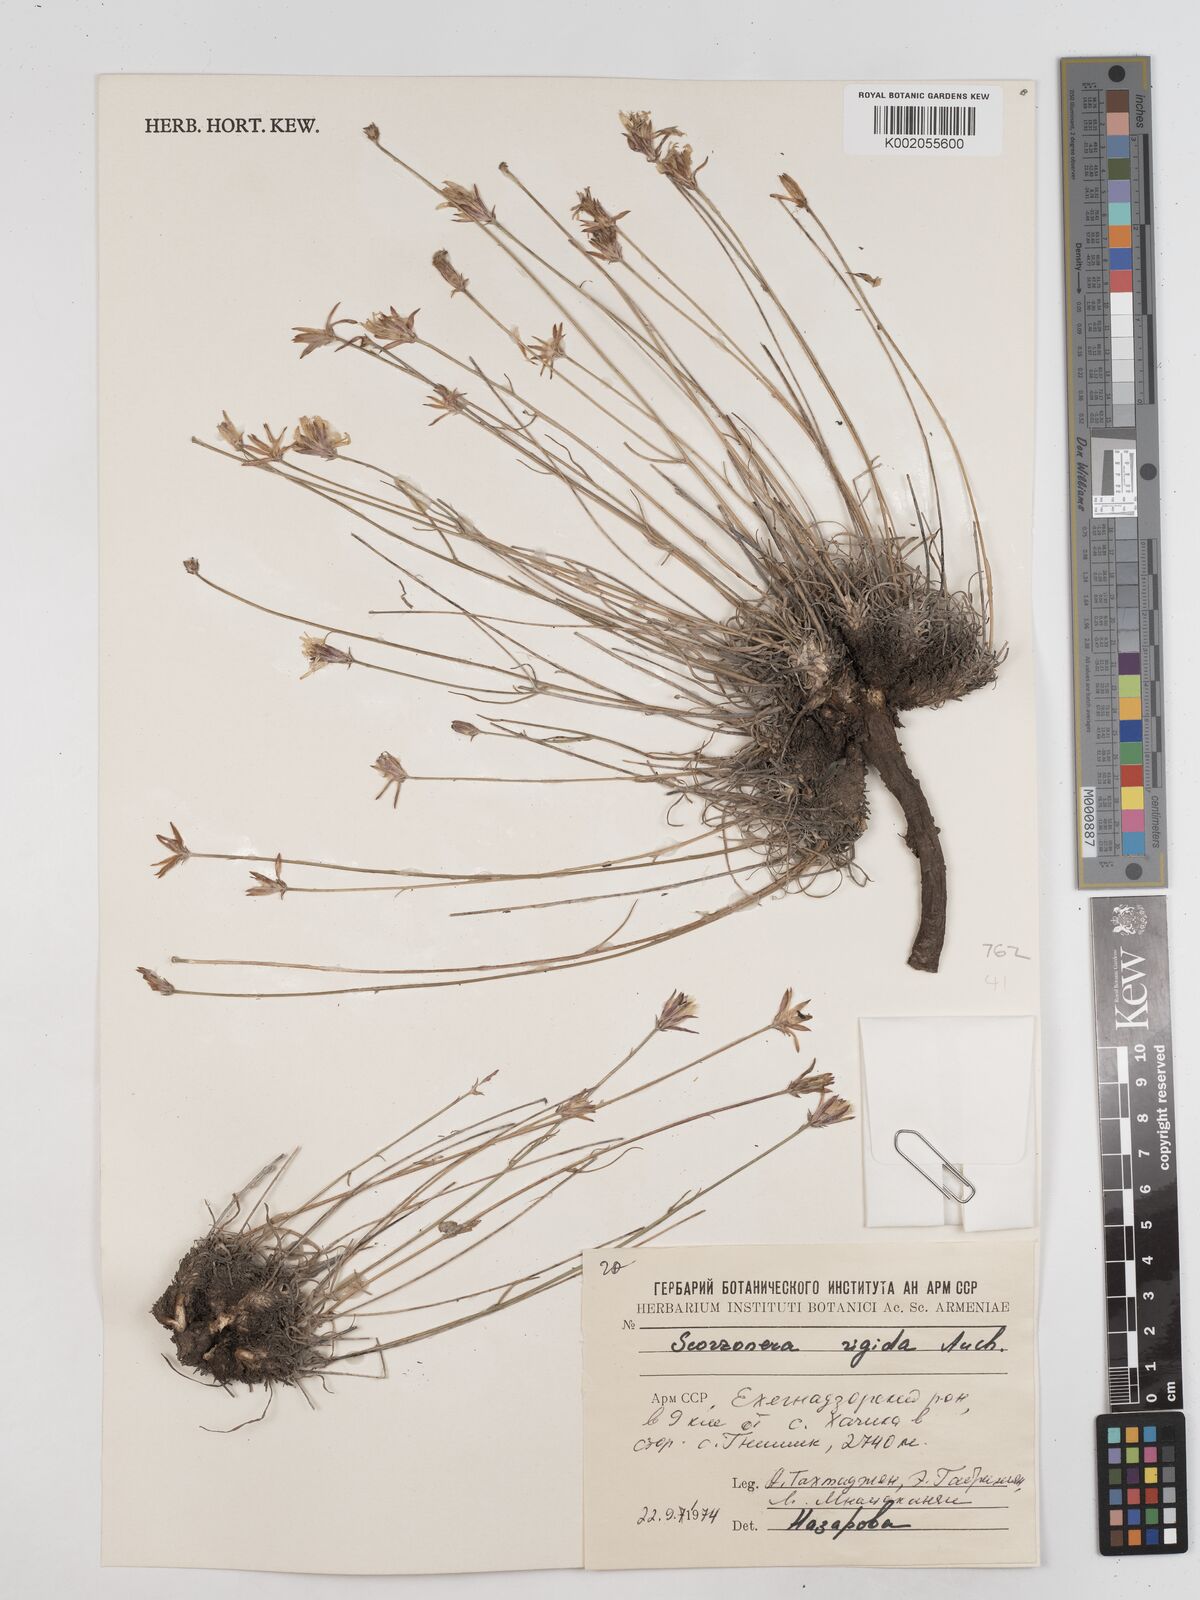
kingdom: Plantae
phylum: Tracheophyta
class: Magnoliopsida
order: Asterales
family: Asteraceae
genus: Goekyighitia
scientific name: Goekyighitia rigida
